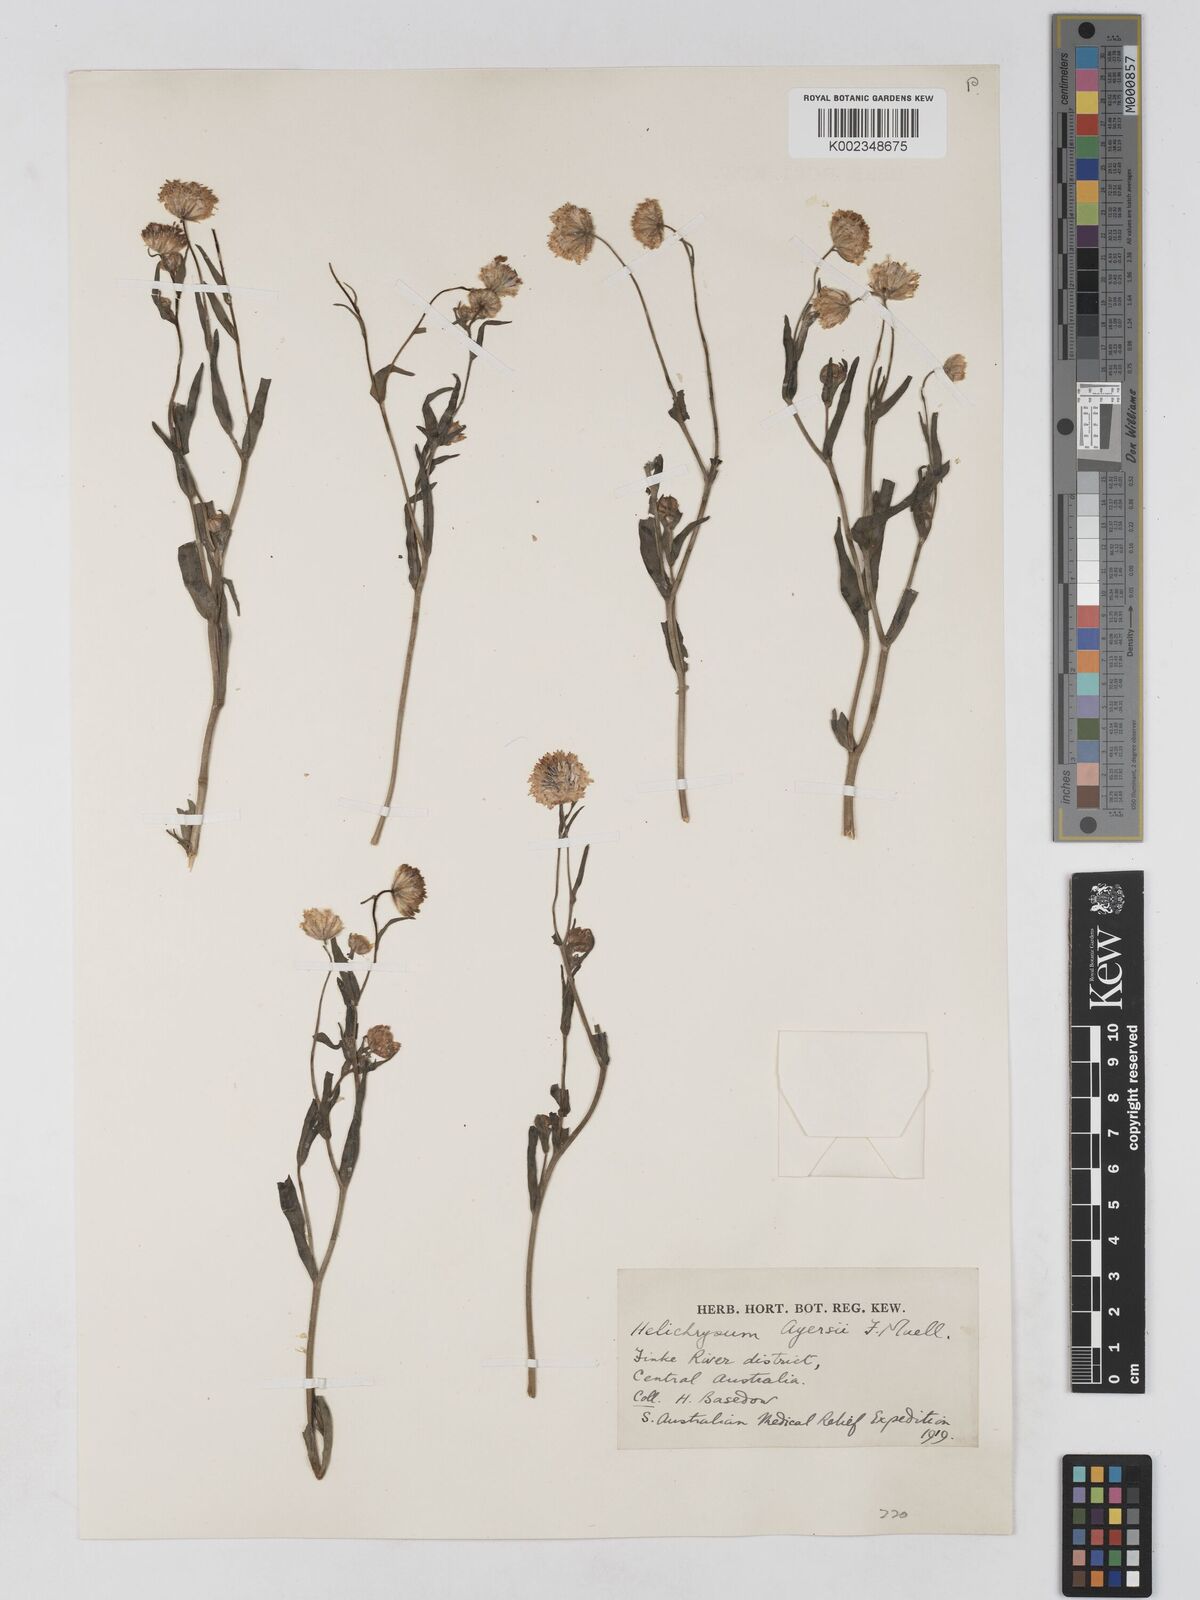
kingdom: Plantae
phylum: Tracheophyta
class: Magnoliopsida
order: Asterales
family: Asteraceae
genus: Schoenia
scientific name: Schoenia ayersii
